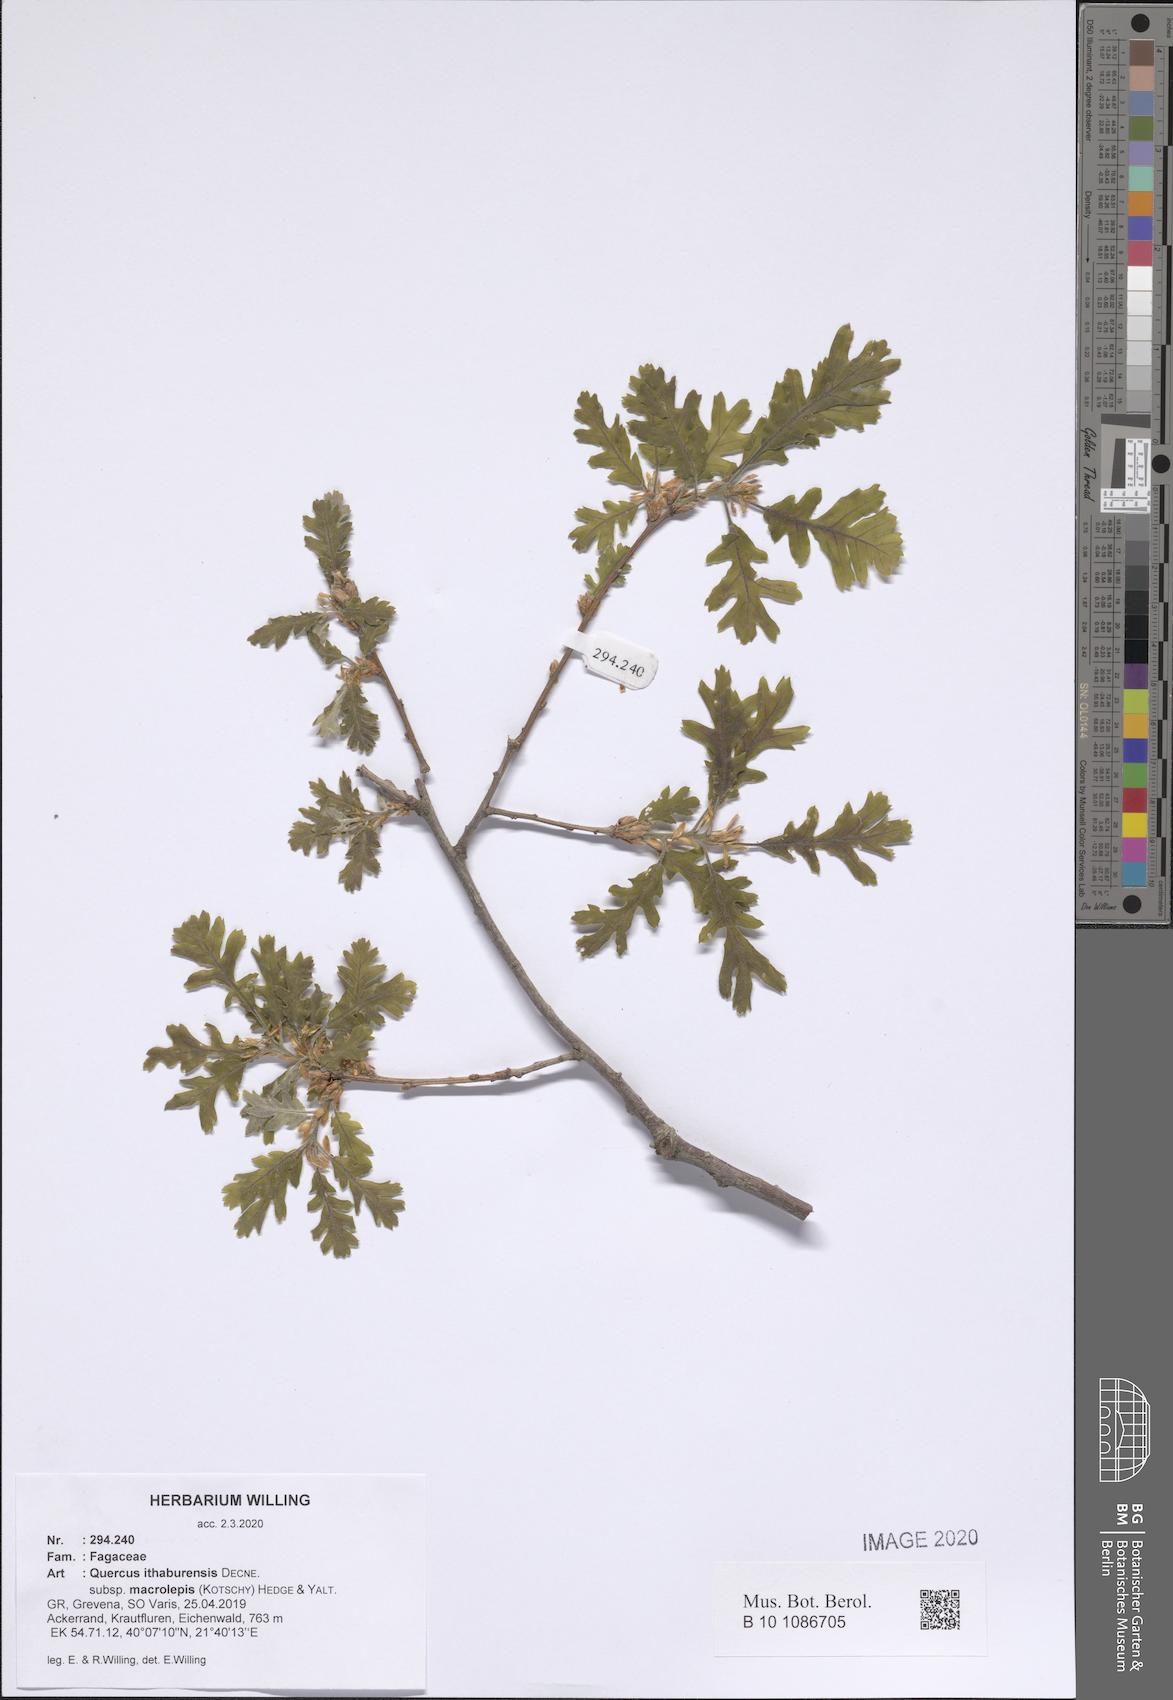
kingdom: Plantae
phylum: Tracheophyta
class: Magnoliopsida
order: Fagales
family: Fagaceae
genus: Quercus
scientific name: Quercus ithaburensis
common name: Tabor oak
